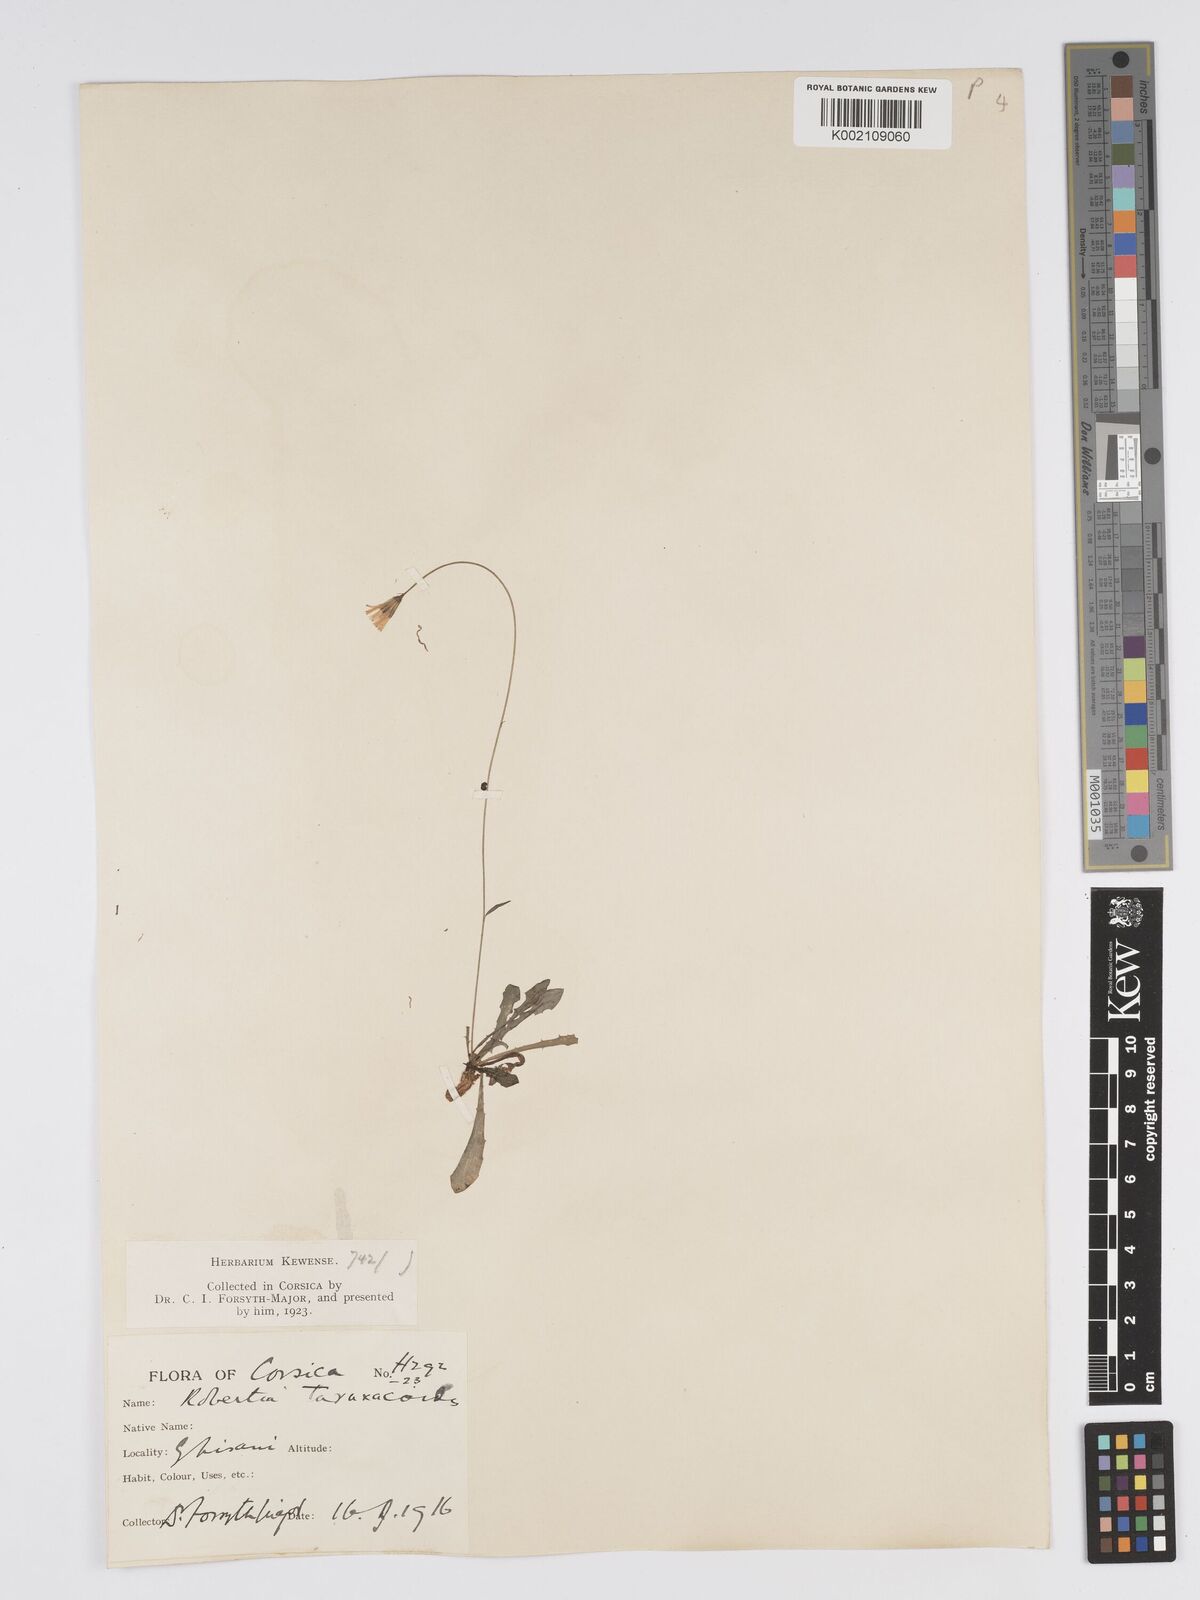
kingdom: Plantae
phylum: Tracheophyta
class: Magnoliopsida
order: Asterales
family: Asteraceae
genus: Crepis
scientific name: Crepis
